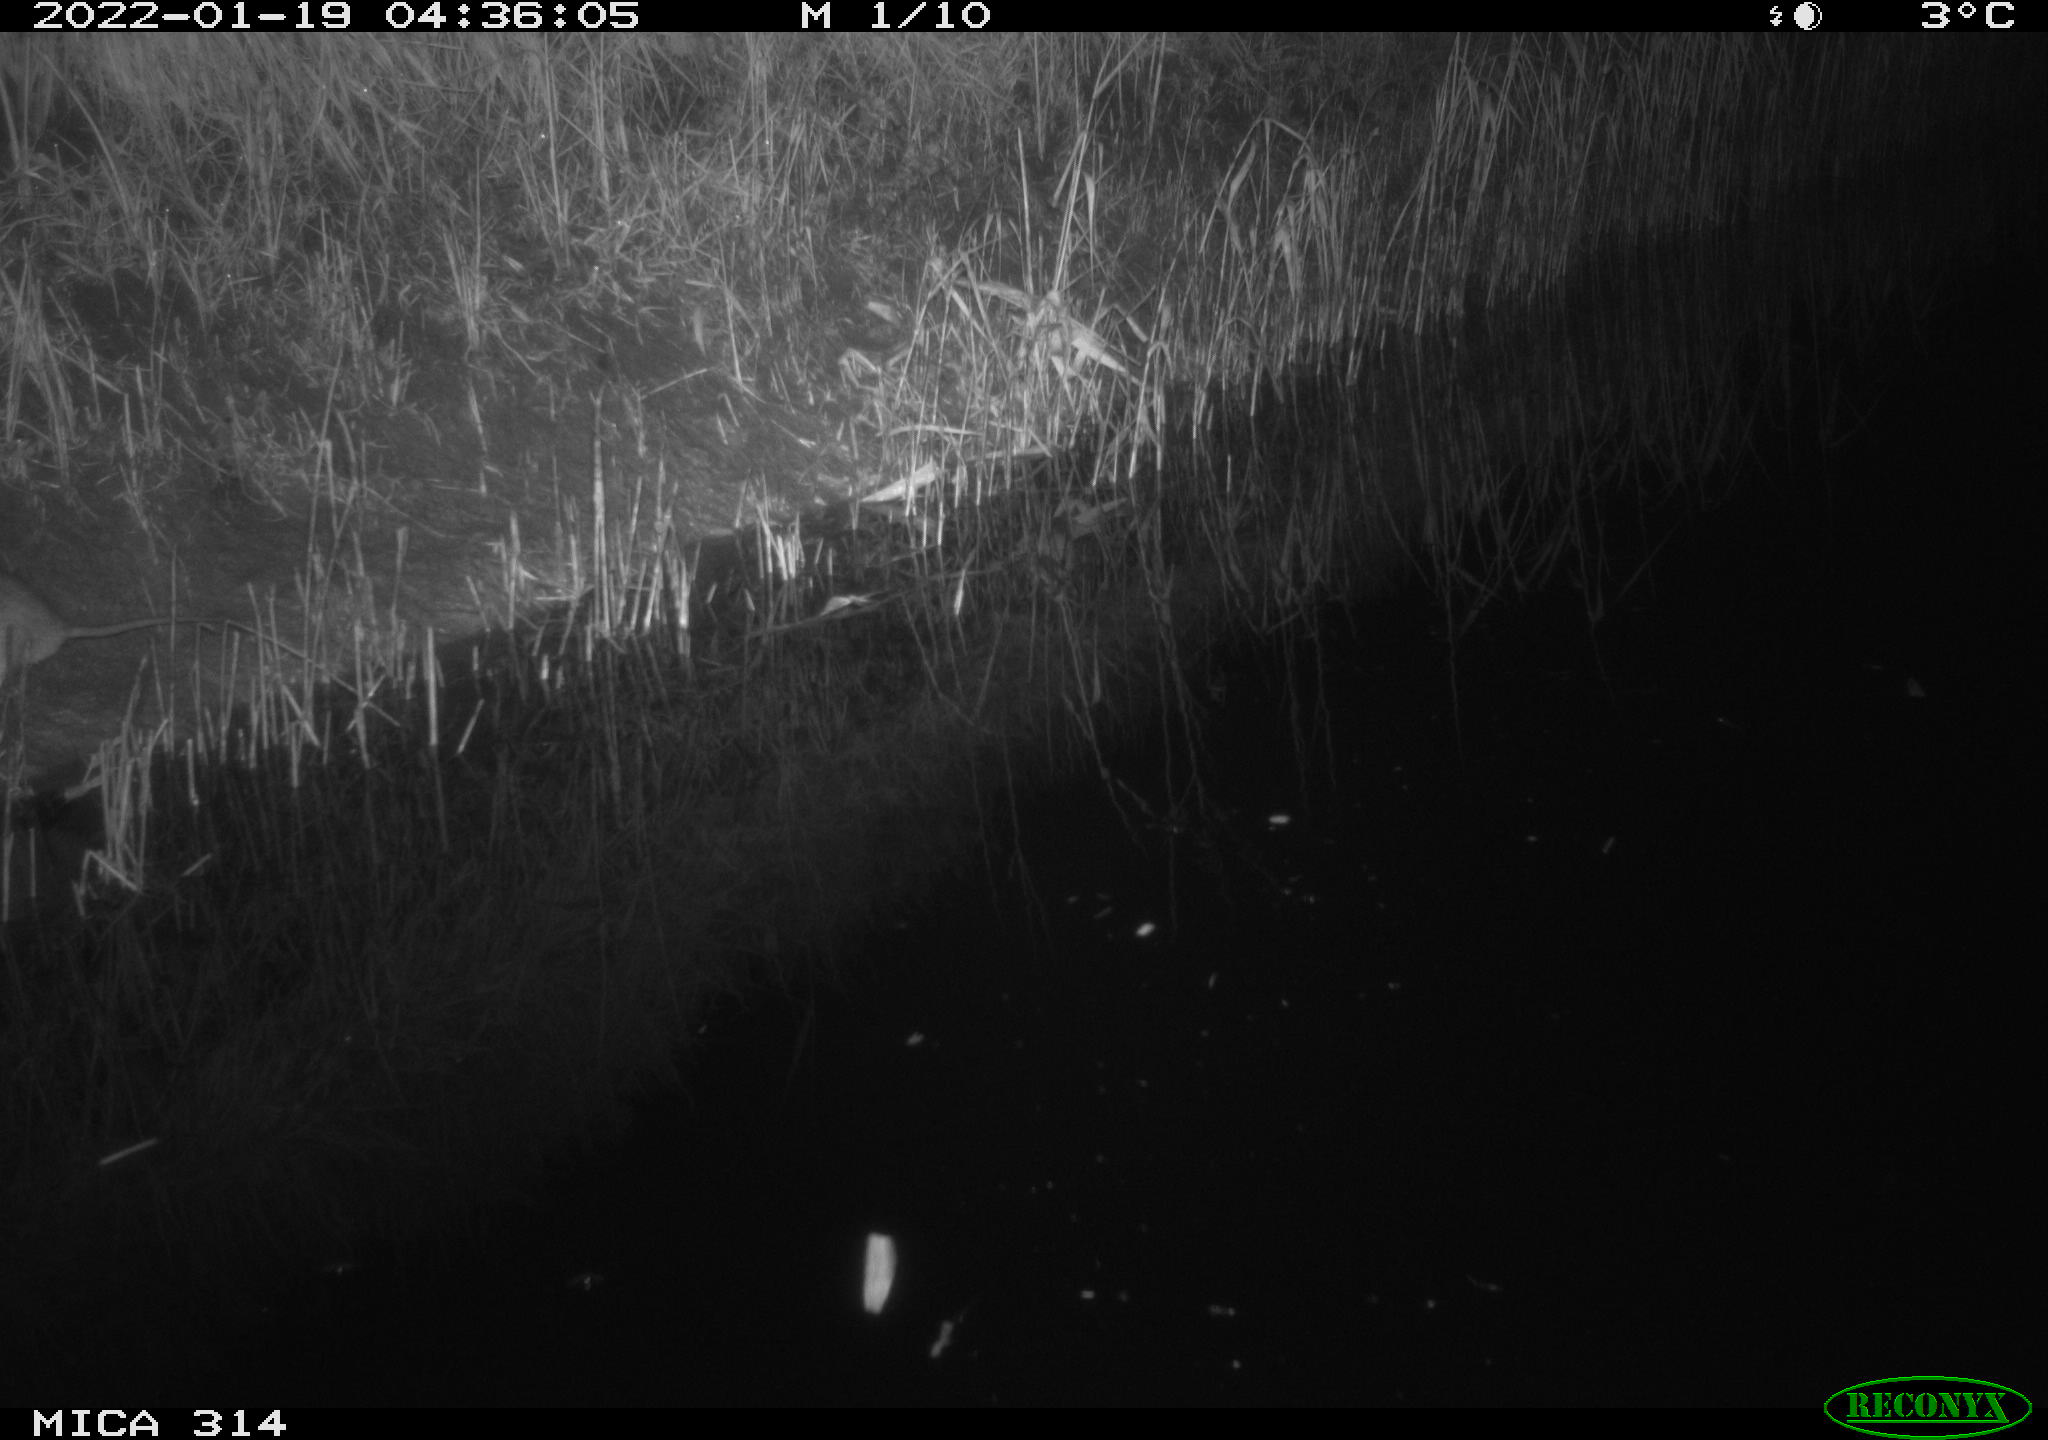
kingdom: Animalia
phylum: Chordata
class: Mammalia
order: Rodentia
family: Muridae
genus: Rattus
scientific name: Rattus norvegicus
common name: Brown rat
